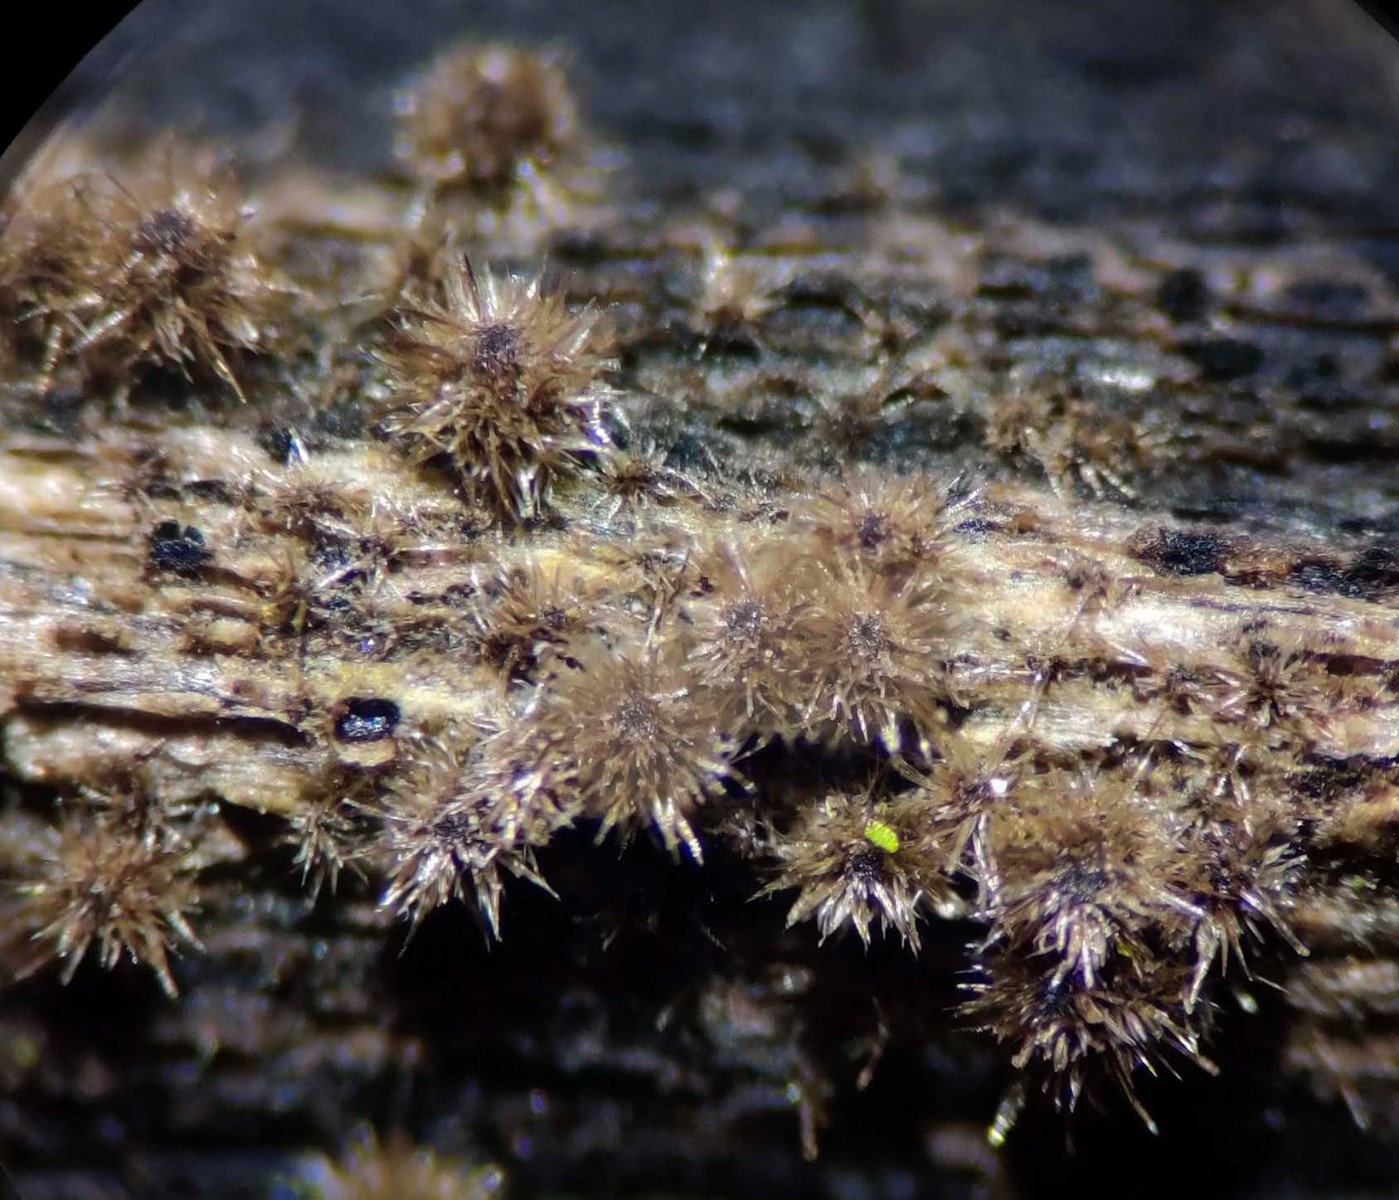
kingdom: Fungi
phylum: Ascomycota
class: Sordariomycetes
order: Sordariales
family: Helminthosphaeriaceae
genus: Echinosphaeria
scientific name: Echinosphaeria canescens
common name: brun børstekerne
